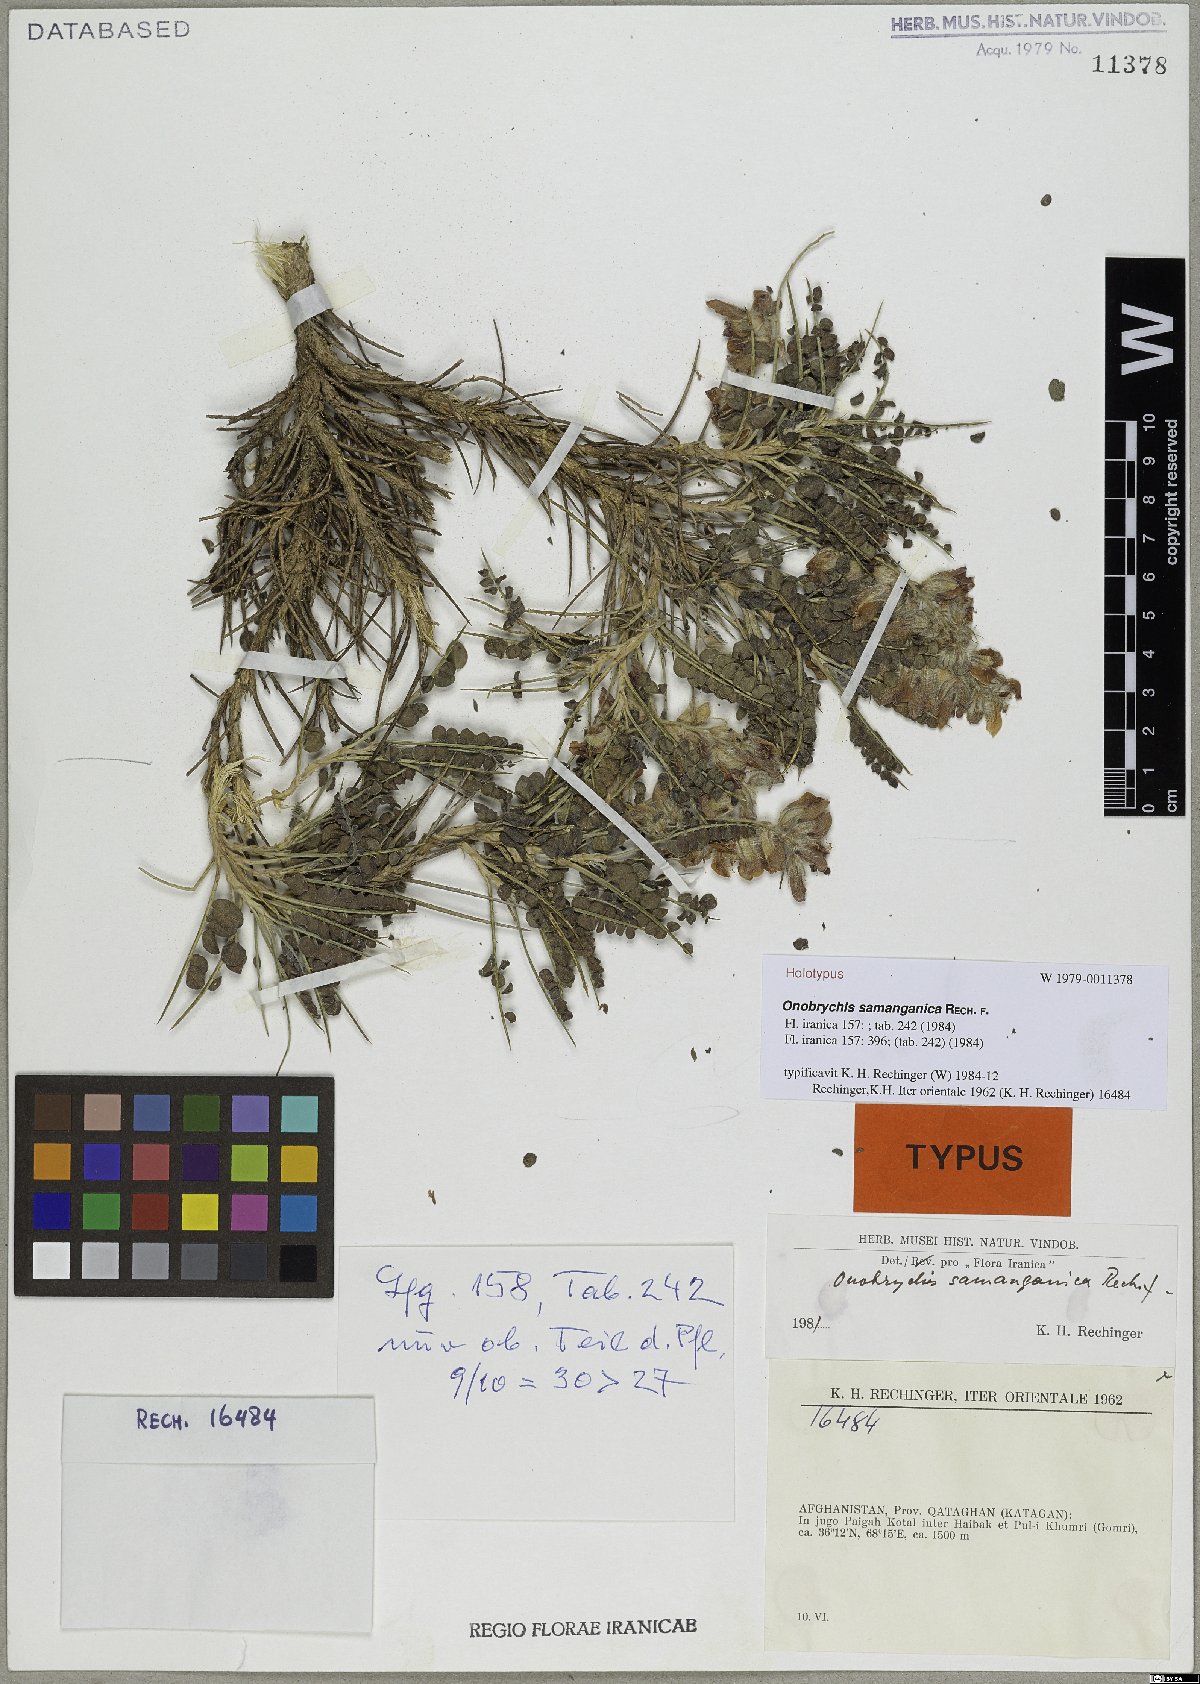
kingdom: Plantae
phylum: Tracheophyta
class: Magnoliopsida
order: Fabales
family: Fabaceae
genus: Onobrychis
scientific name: Onobrychis samanganica
